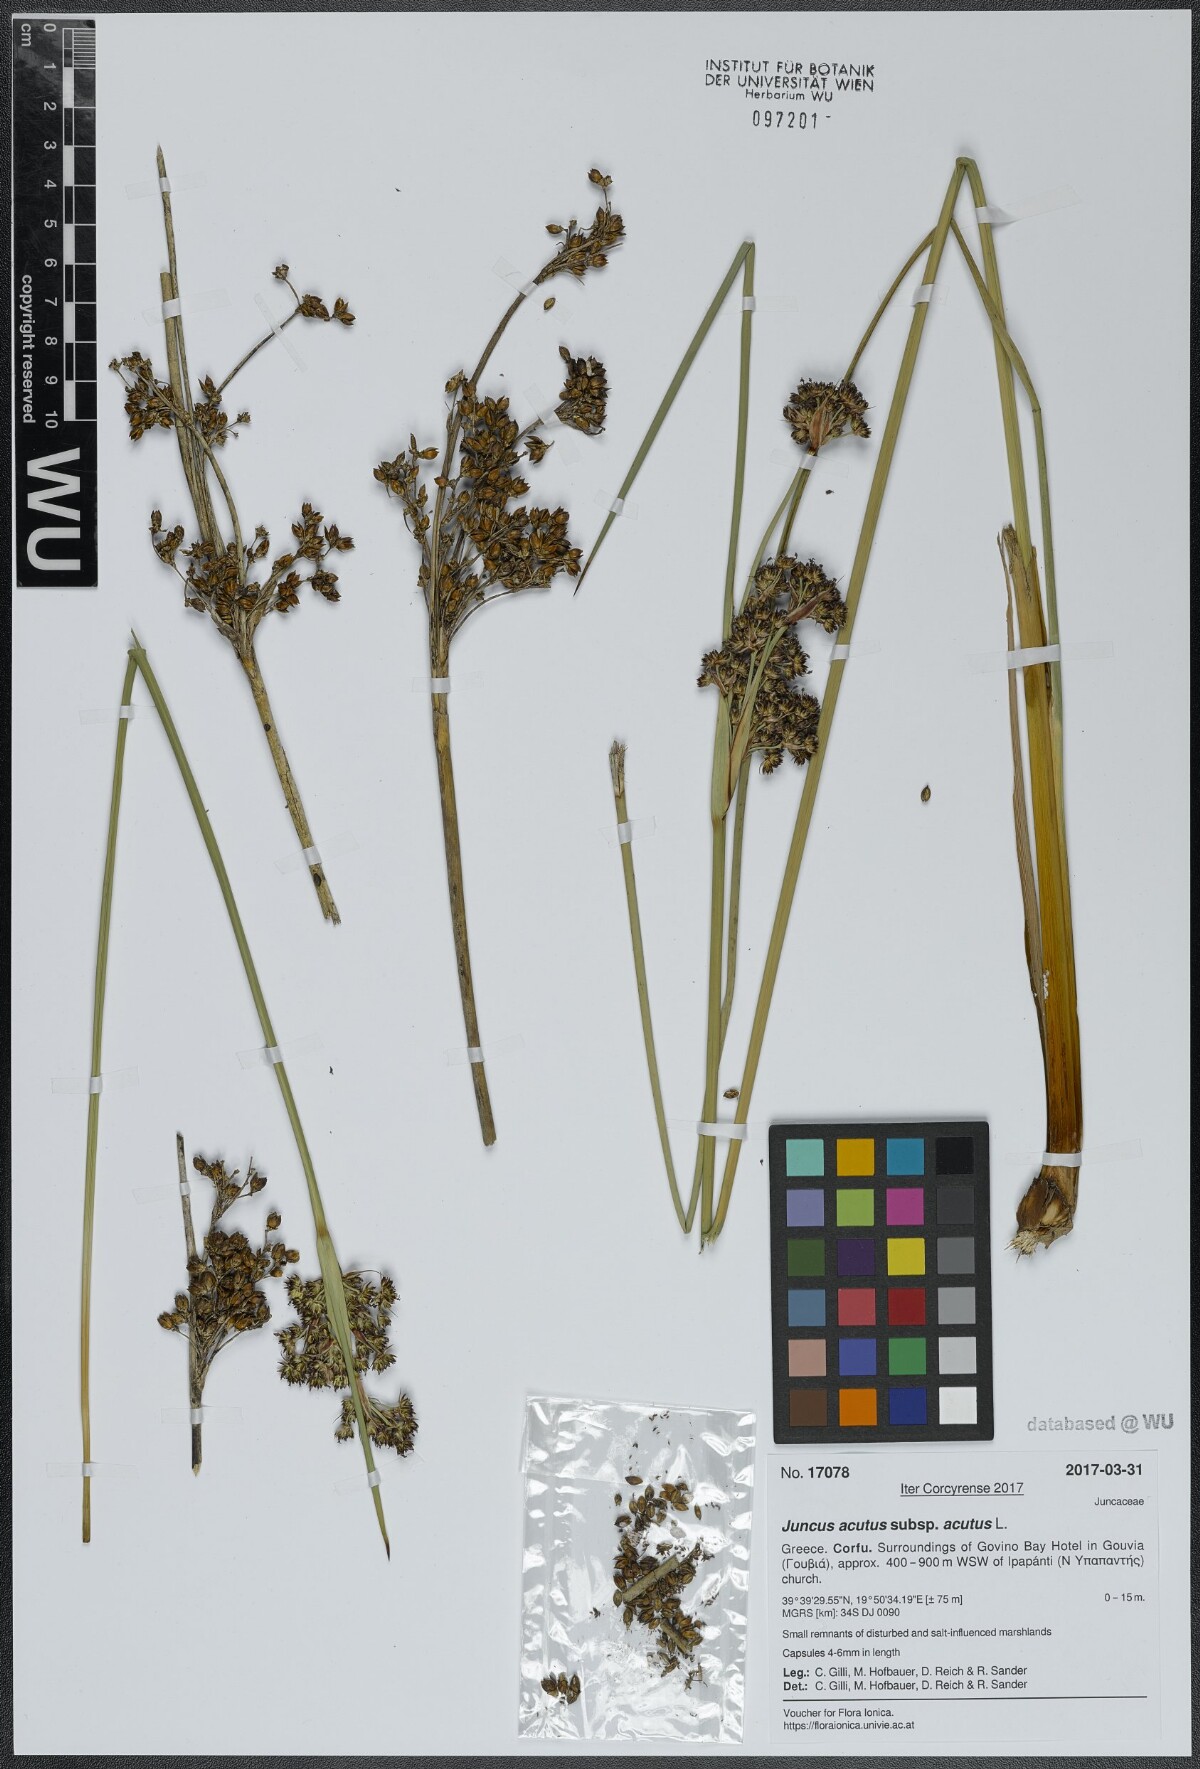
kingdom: Plantae
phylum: Tracheophyta
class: Liliopsida
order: Poales
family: Juncaceae
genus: Juncus
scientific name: Juncus acutus
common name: Sharp rush
